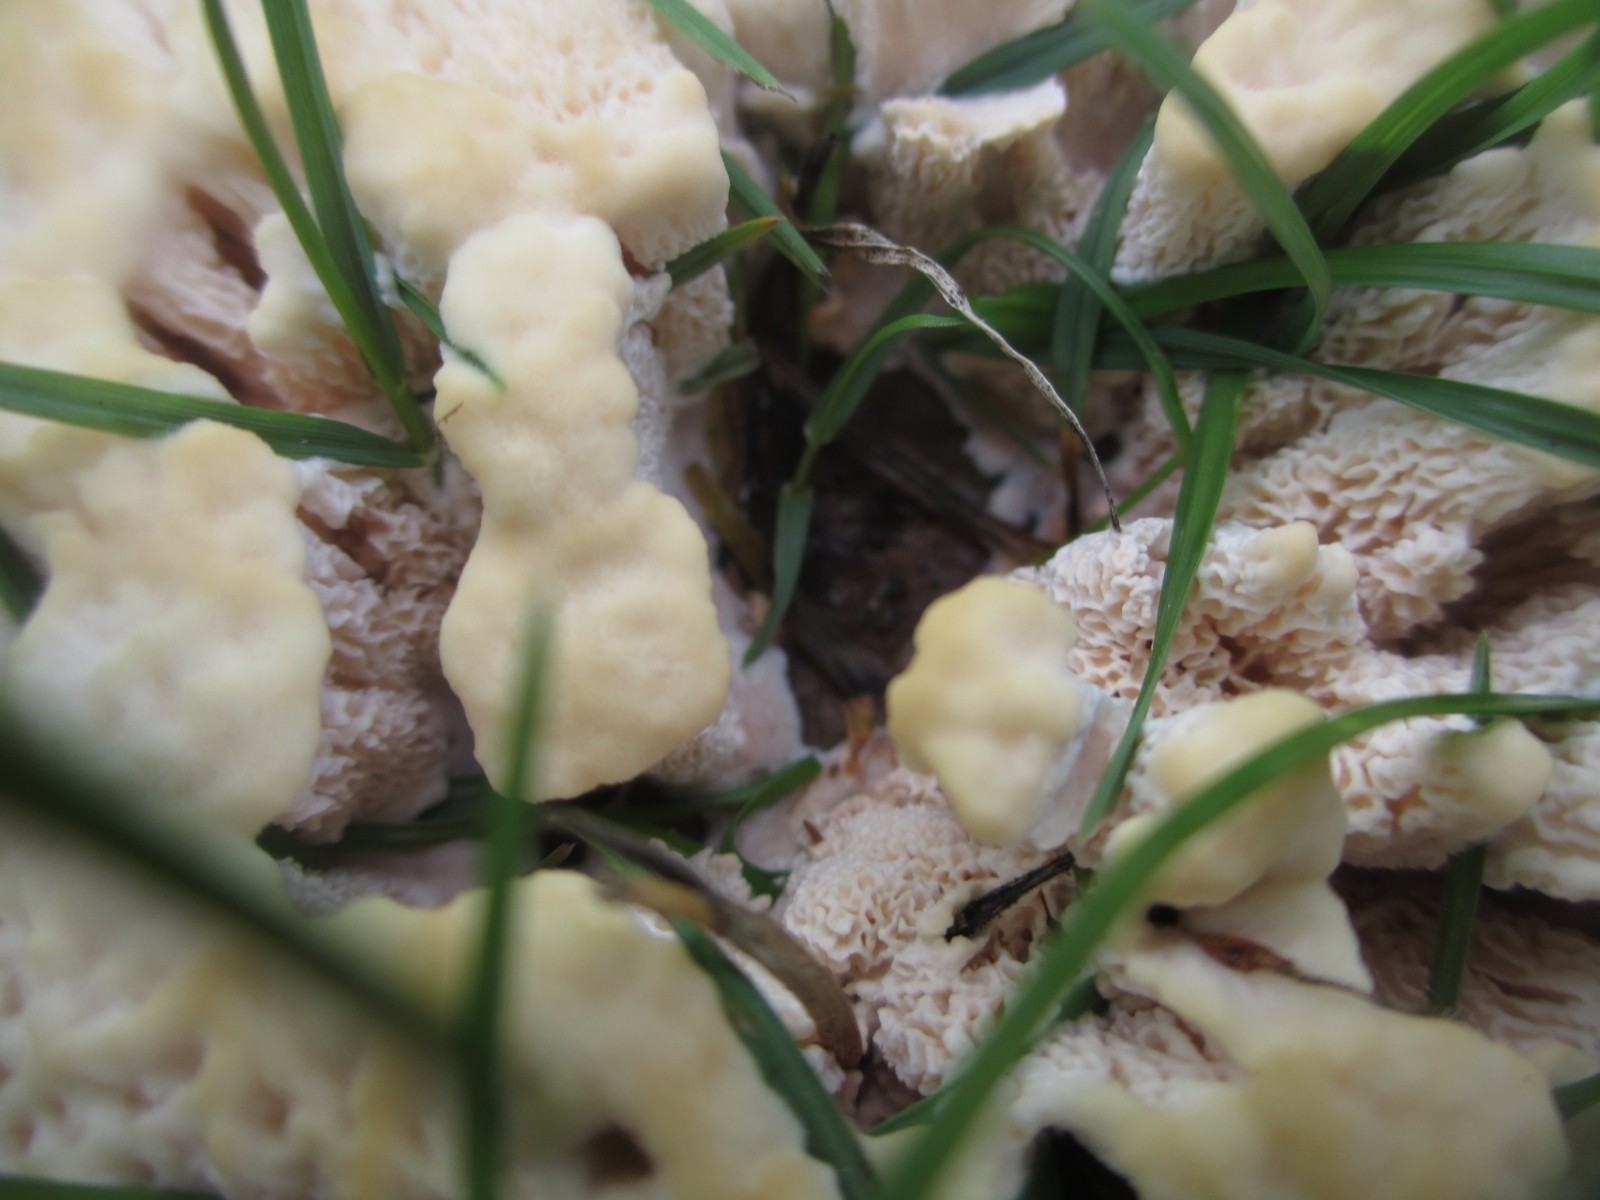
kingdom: Fungi
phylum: Basidiomycota
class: Agaricomycetes
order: Polyporales
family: Podoscyphaceae
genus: Abortiporus
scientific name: Abortiporus biennis
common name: rødmende pjalteporesvamp
